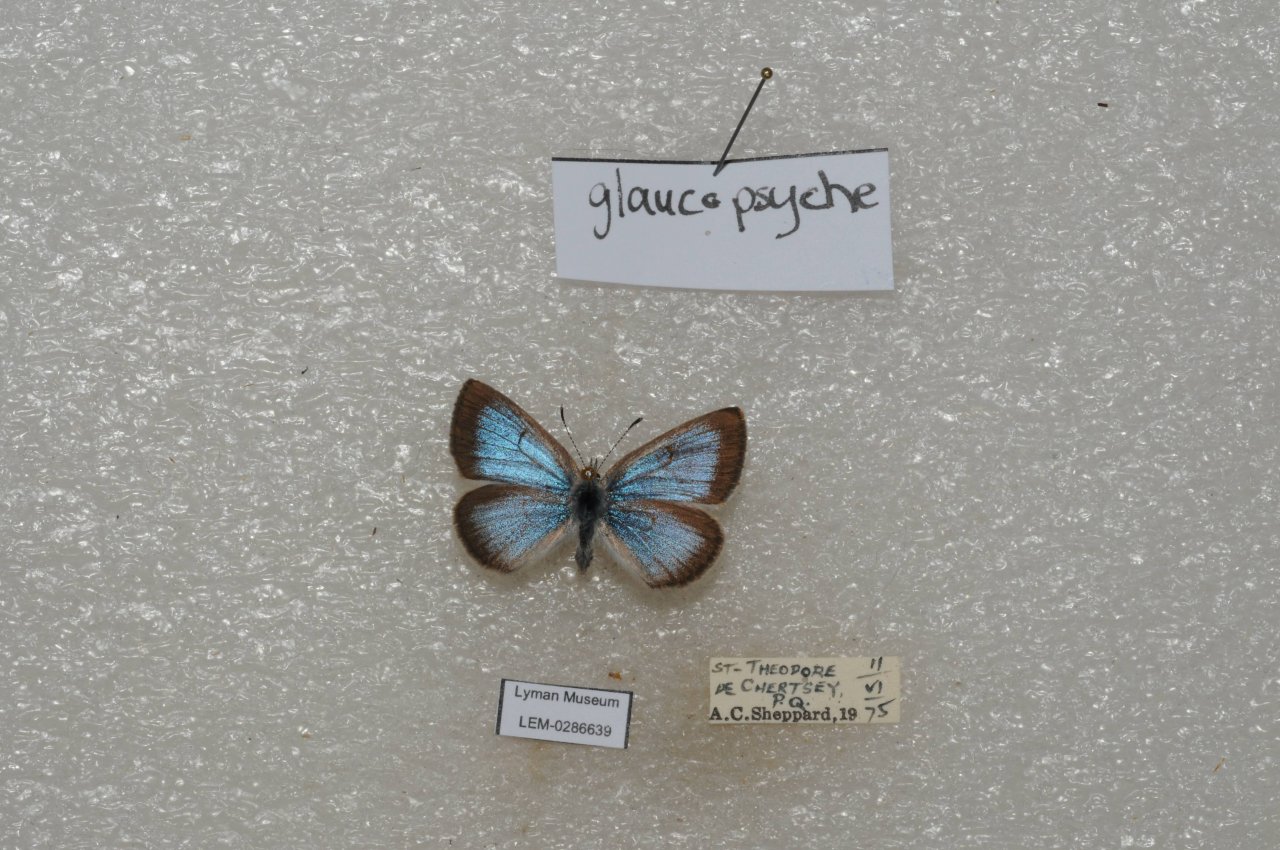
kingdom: Animalia
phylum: Arthropoda
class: Insecta
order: Lepidoptera
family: Lycaenidae
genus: Glaucopsyche
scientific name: Glaucopsyche lygdamus
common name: Silvery Blue
